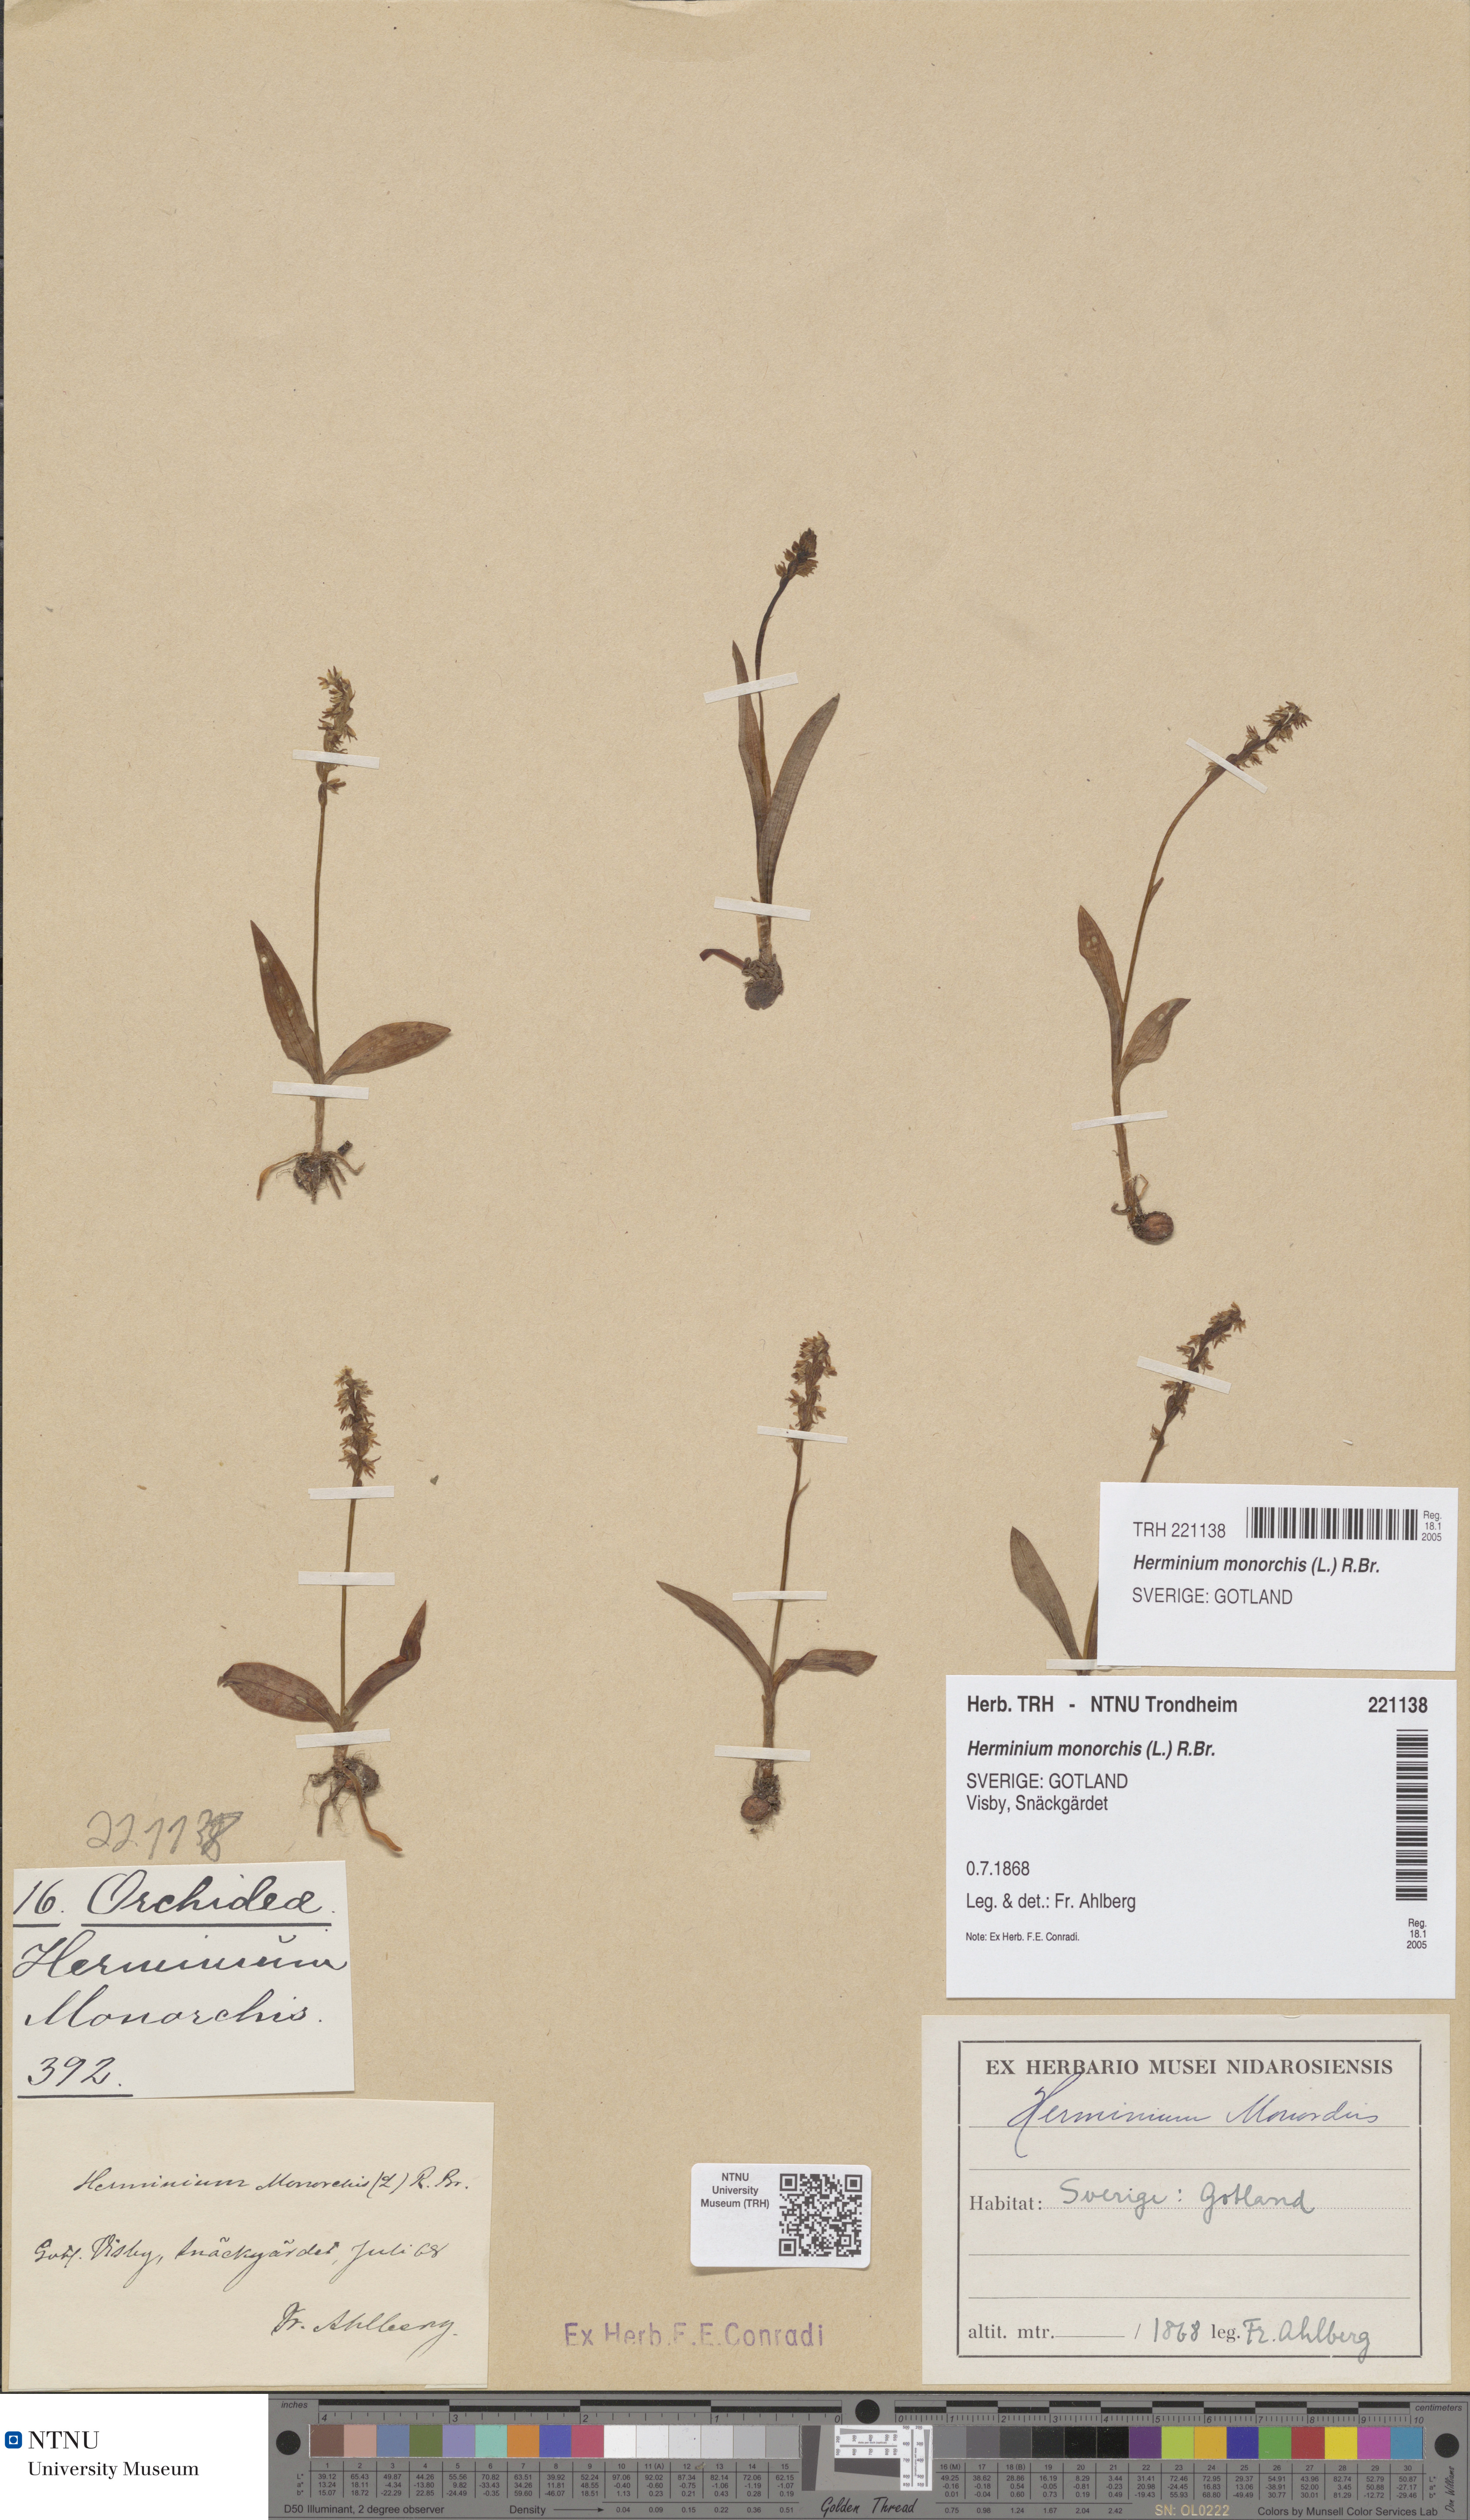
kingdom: Plantae
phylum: Tracheophyta
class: Liliopsida
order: Asparagales
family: Orchidaceae
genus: Herminium
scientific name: Herminium monorchis
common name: Musk orchid
